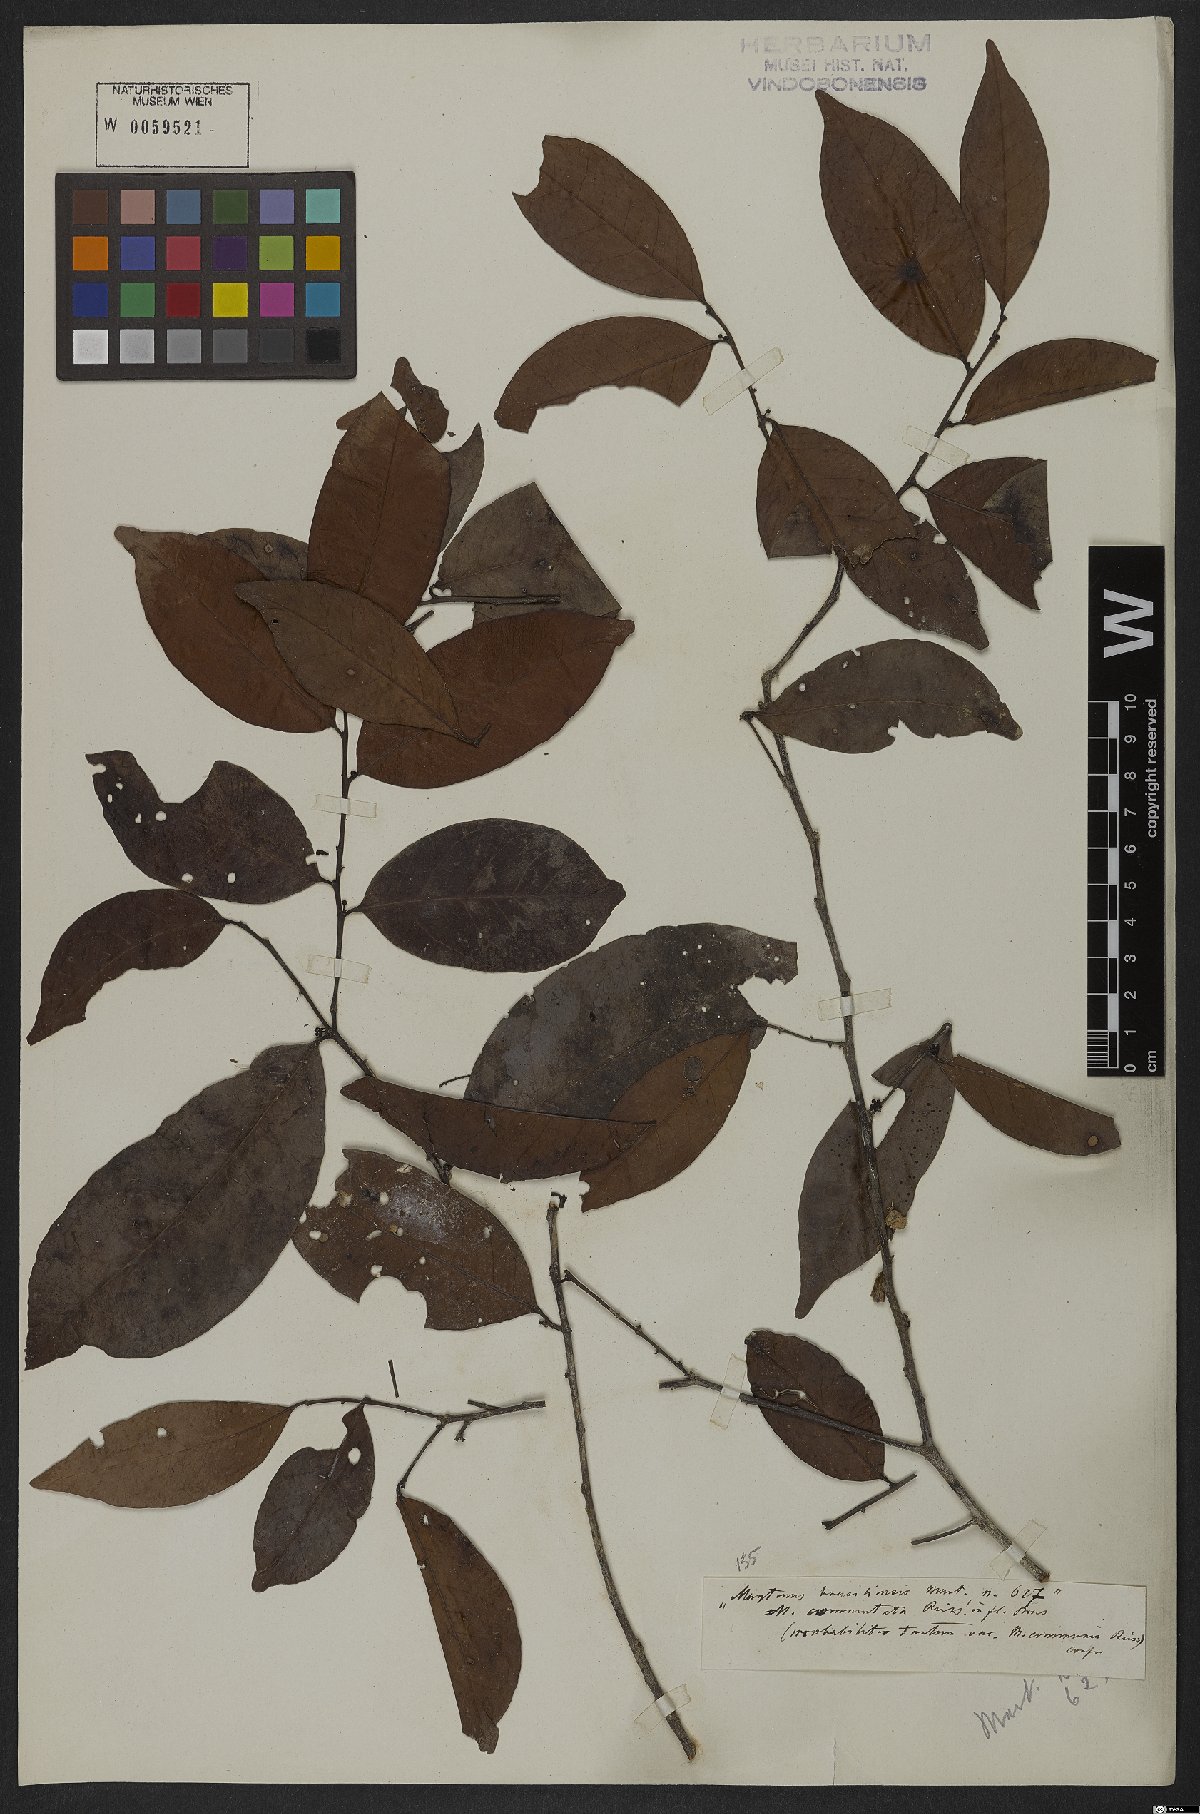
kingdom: Plantae
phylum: Tracheophyta
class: Magnoliopsida
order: Celastrales
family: Celastraceae
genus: Monteverdia
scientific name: Monteverdia brasiliensis
